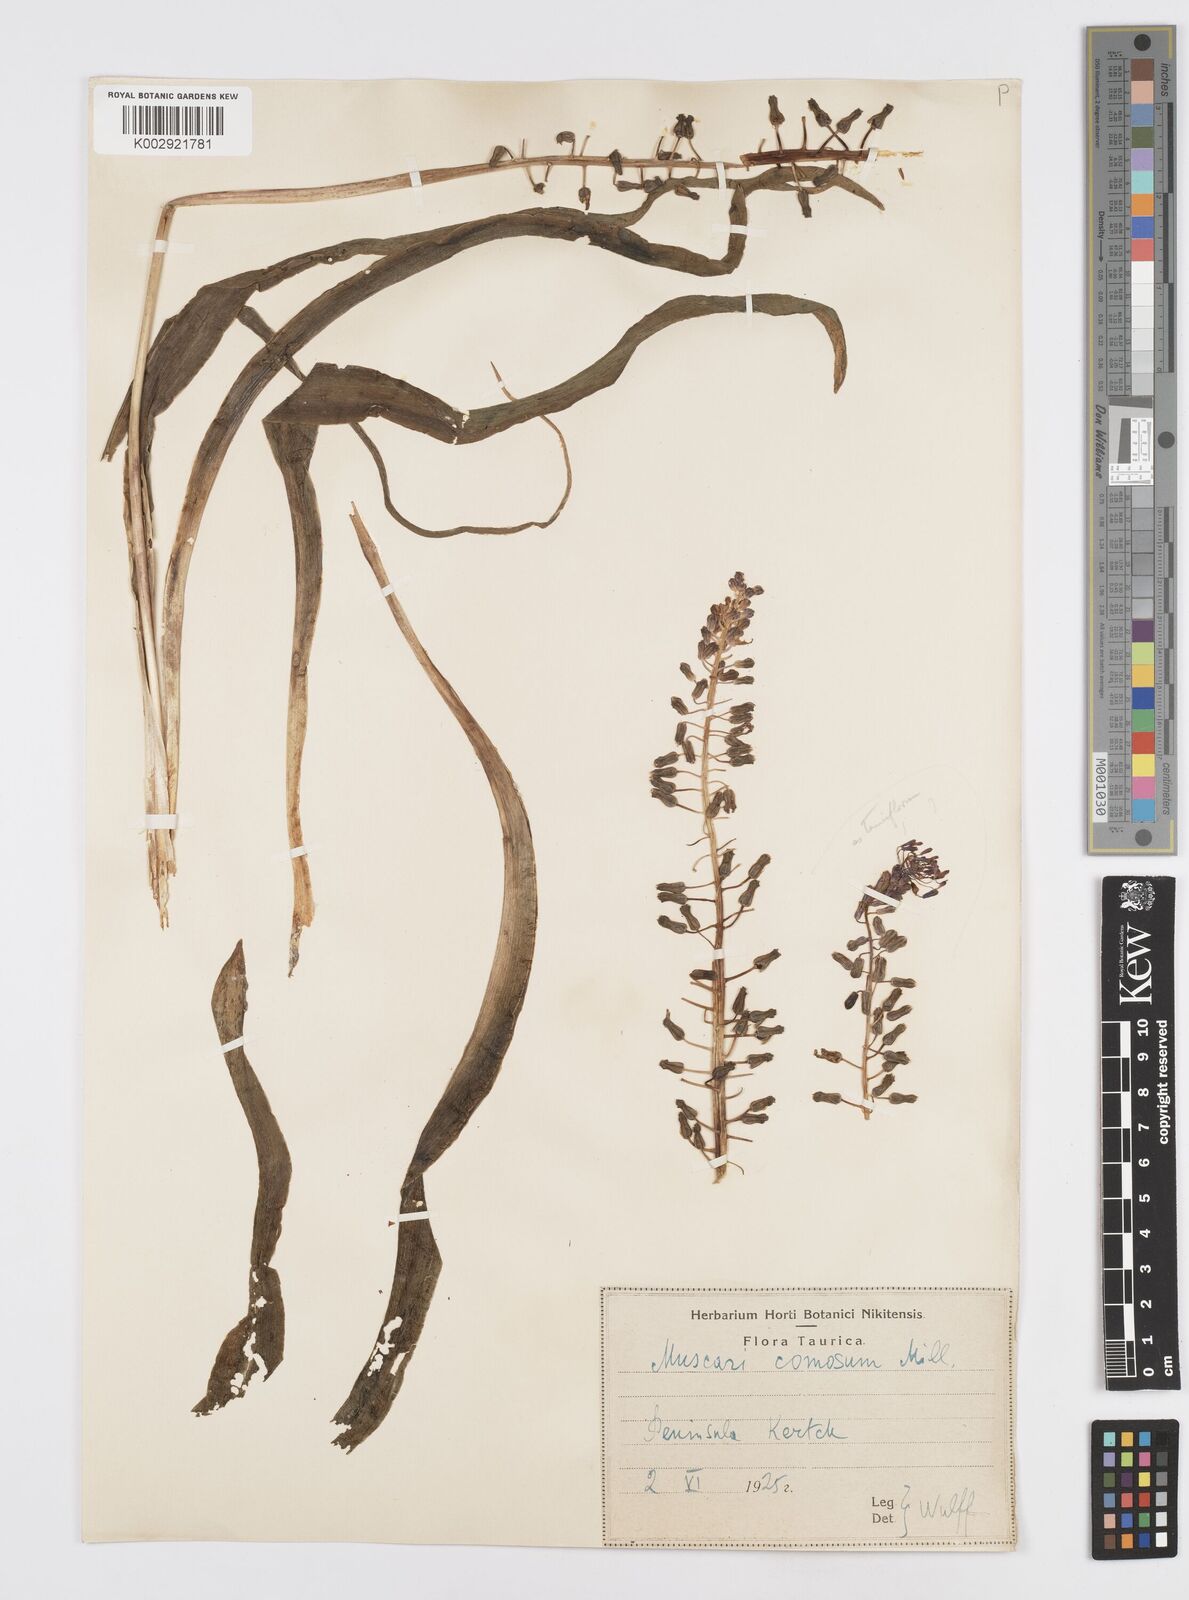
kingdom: Plantae
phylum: Tracheophyta
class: Liliopsida
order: Asparagales
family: Asparagaceae
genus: Muscari
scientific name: Muscari comosum
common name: Tassel hyacinth
